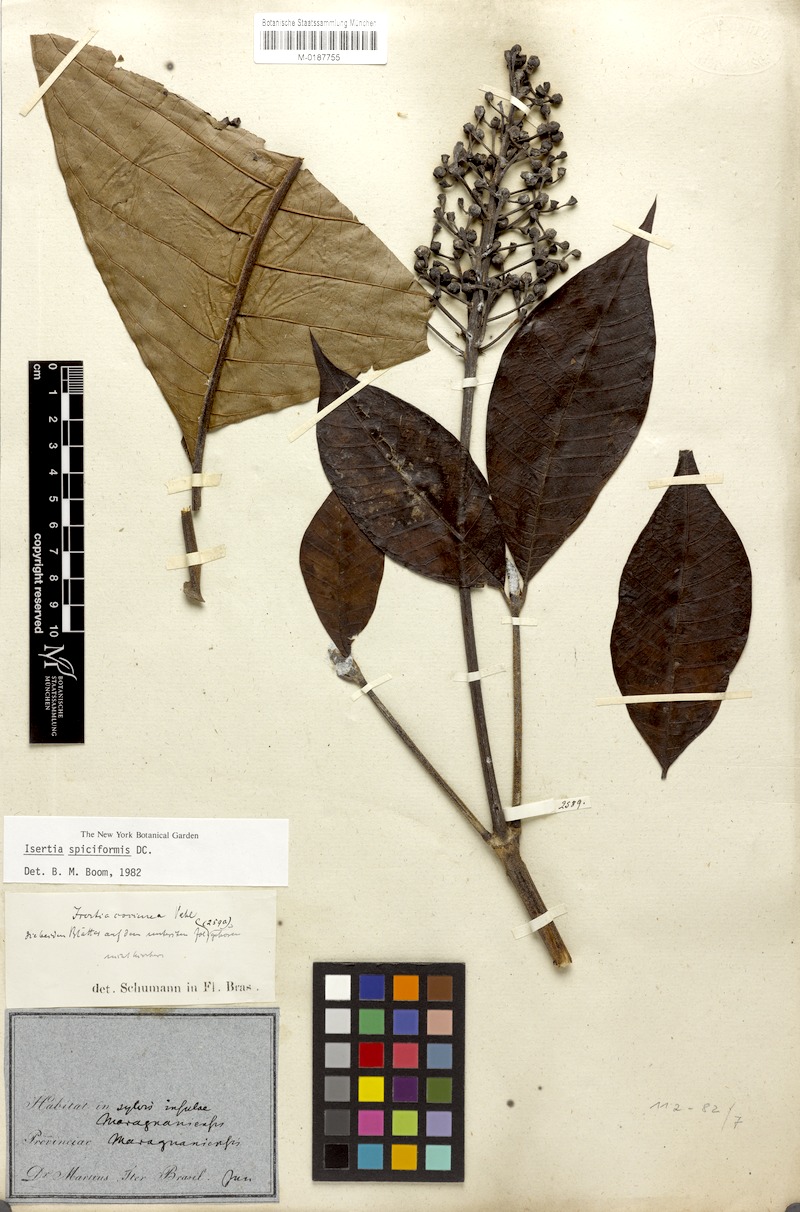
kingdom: Plantae
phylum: Tracheophyta
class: Magnoliopsida
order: Gentianales
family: Rubiaceae
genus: Isertia
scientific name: Isertia spiciformis
